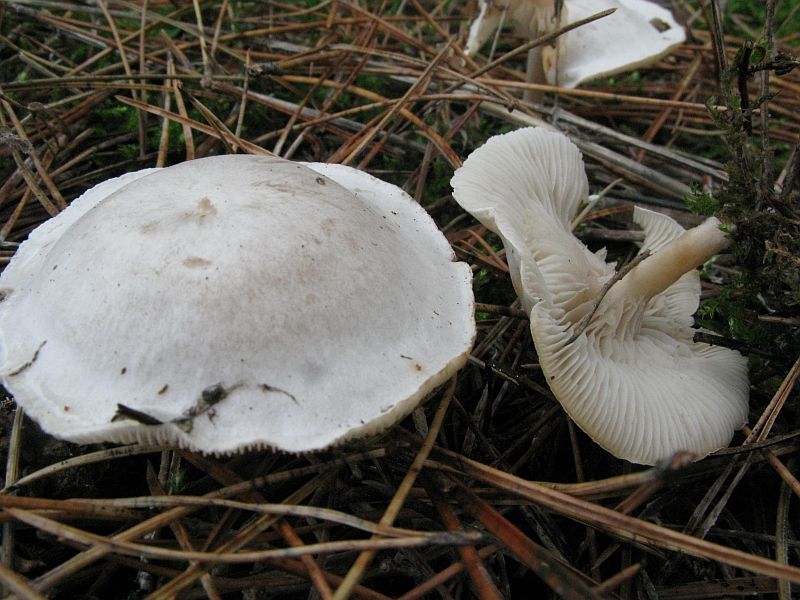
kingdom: Fungi
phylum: Basidiomycota
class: Agaricomycetes
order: Agaricales
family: Tricholomataceae
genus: Clitocybe
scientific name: Clitocybe phyllophila
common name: løv-tragthat
